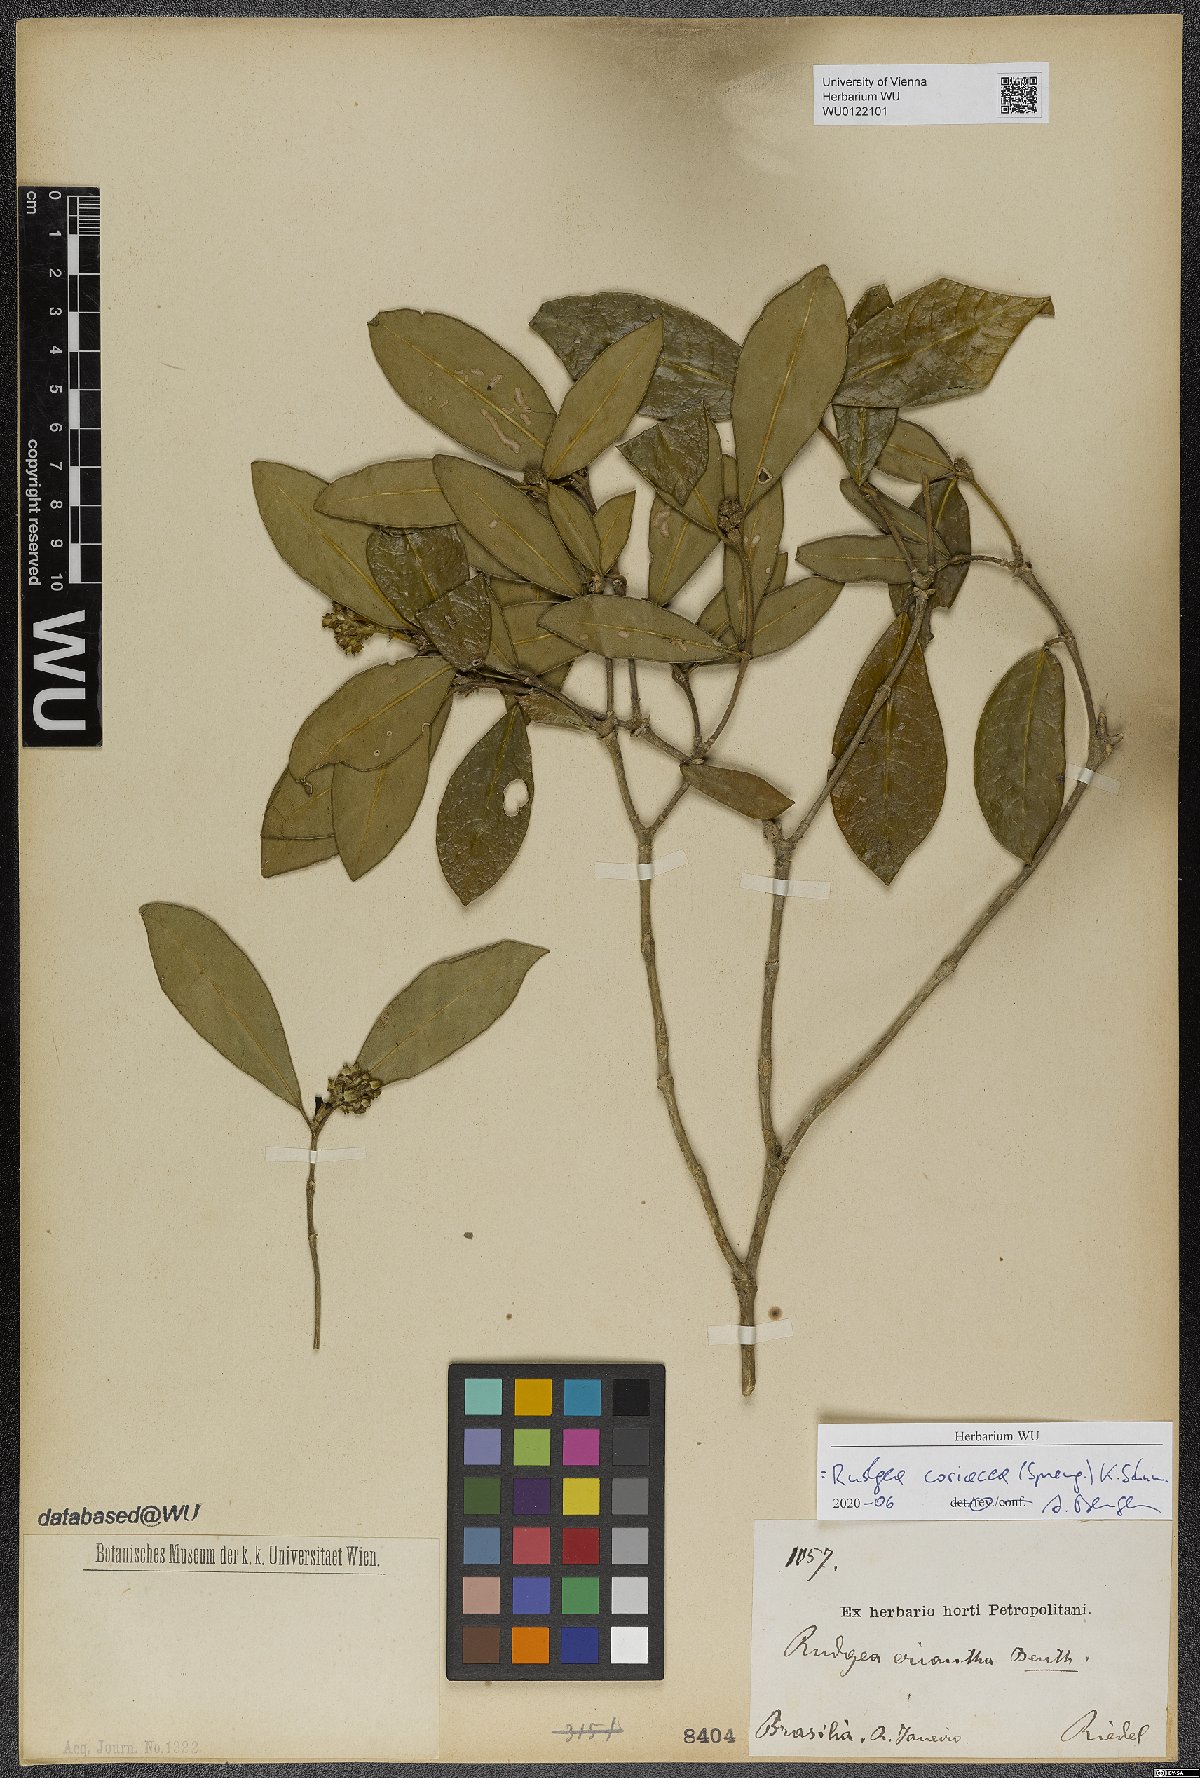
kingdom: Plantae
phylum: Tracheophyta
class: Magnoliopsida
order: Gentianales
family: Rubiaceae
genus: Rudgea
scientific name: Rudgea coriacea
